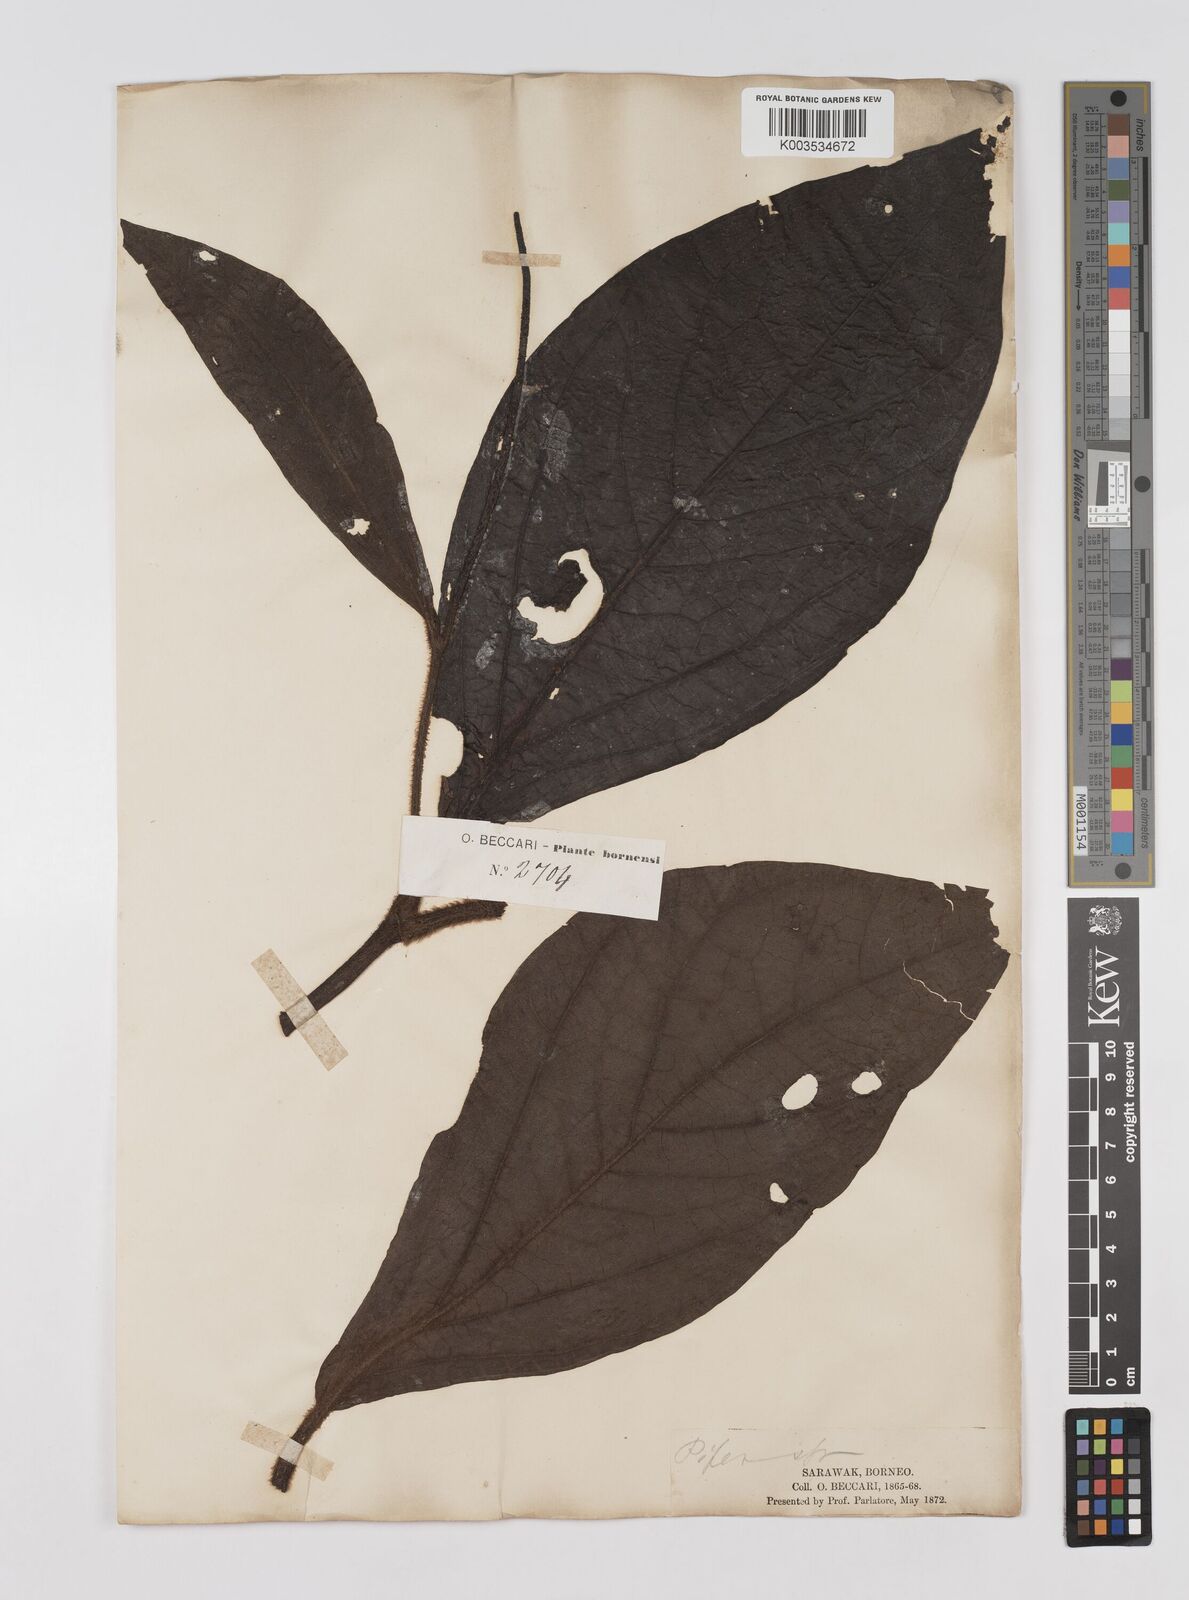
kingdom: Plantae
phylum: Tracheophyta
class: Magnoliopsida
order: Piperales
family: Piperaceae
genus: Piper
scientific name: Piper muricatum
